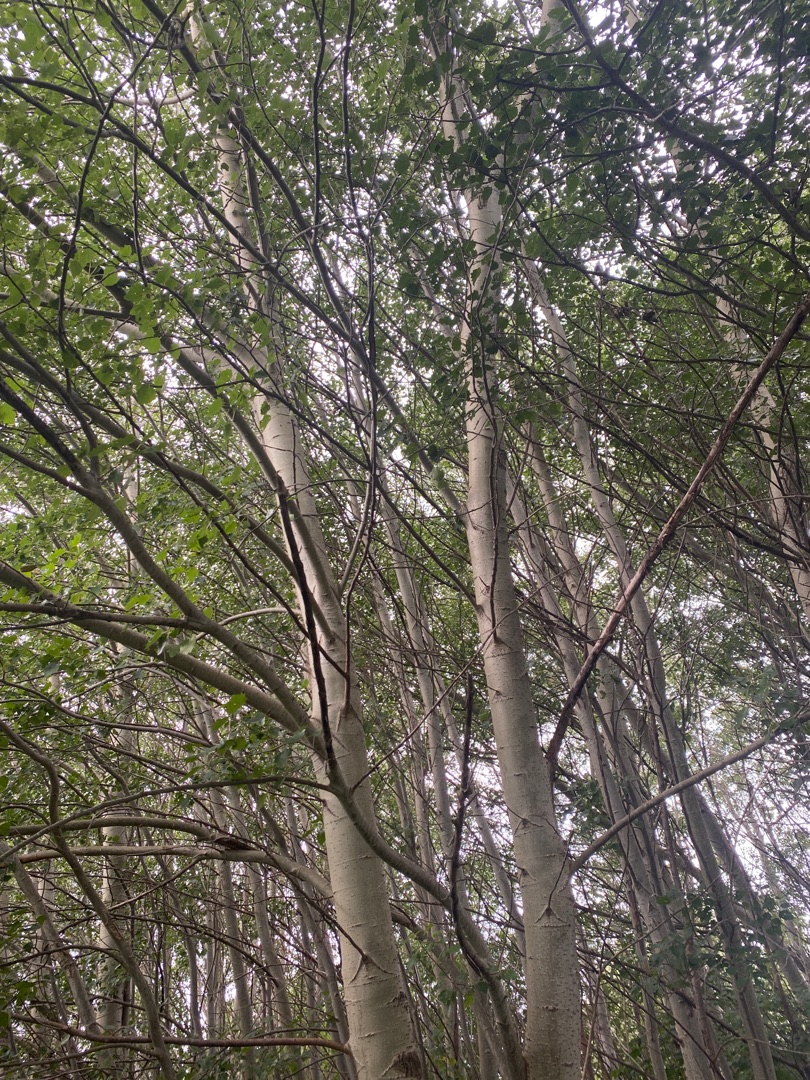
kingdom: Plantae
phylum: Tracheophyta
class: Magnoliopsida
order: Asterales
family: Asteraceae
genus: Achillea
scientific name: Achillea millefolium
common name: Almindelig røllike
